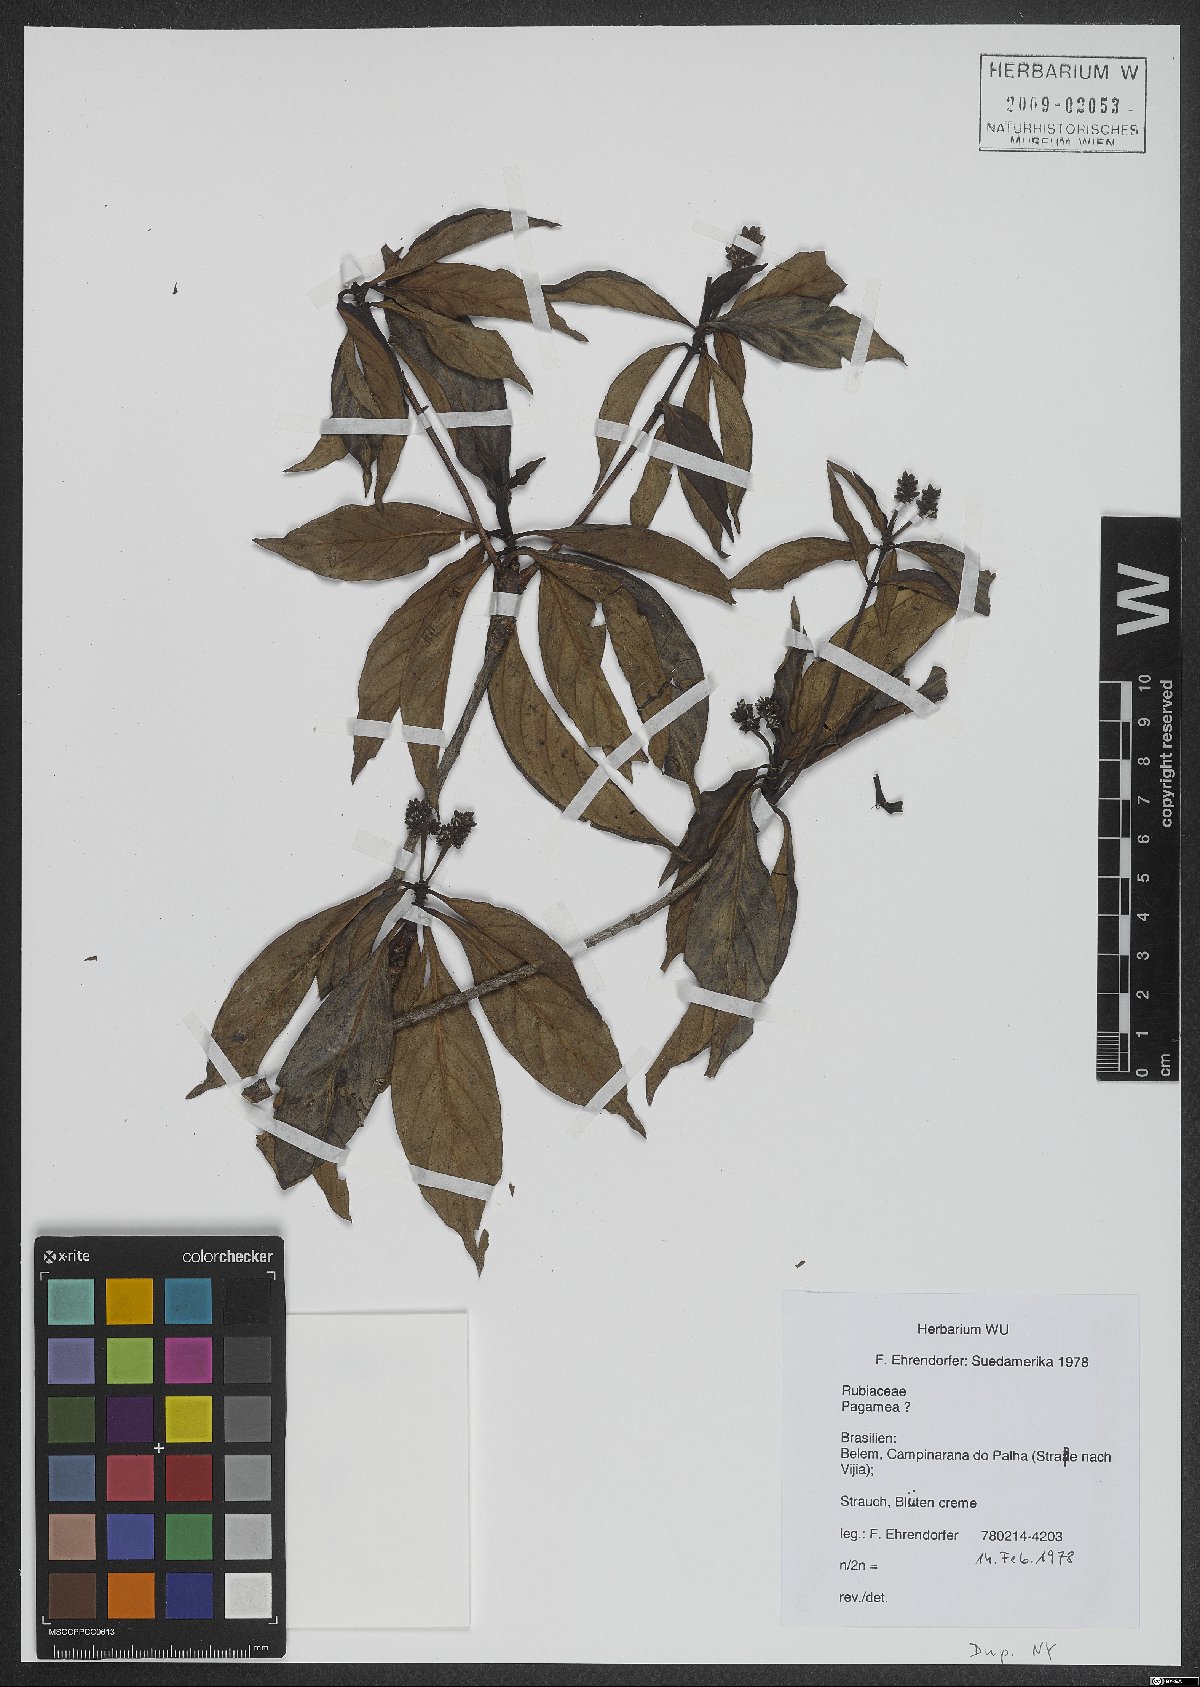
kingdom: Plantae
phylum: Tracheophyta
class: Magnoliopsida
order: Gentianales
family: Rubiaceae
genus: Pagamea
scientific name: Pagamea
